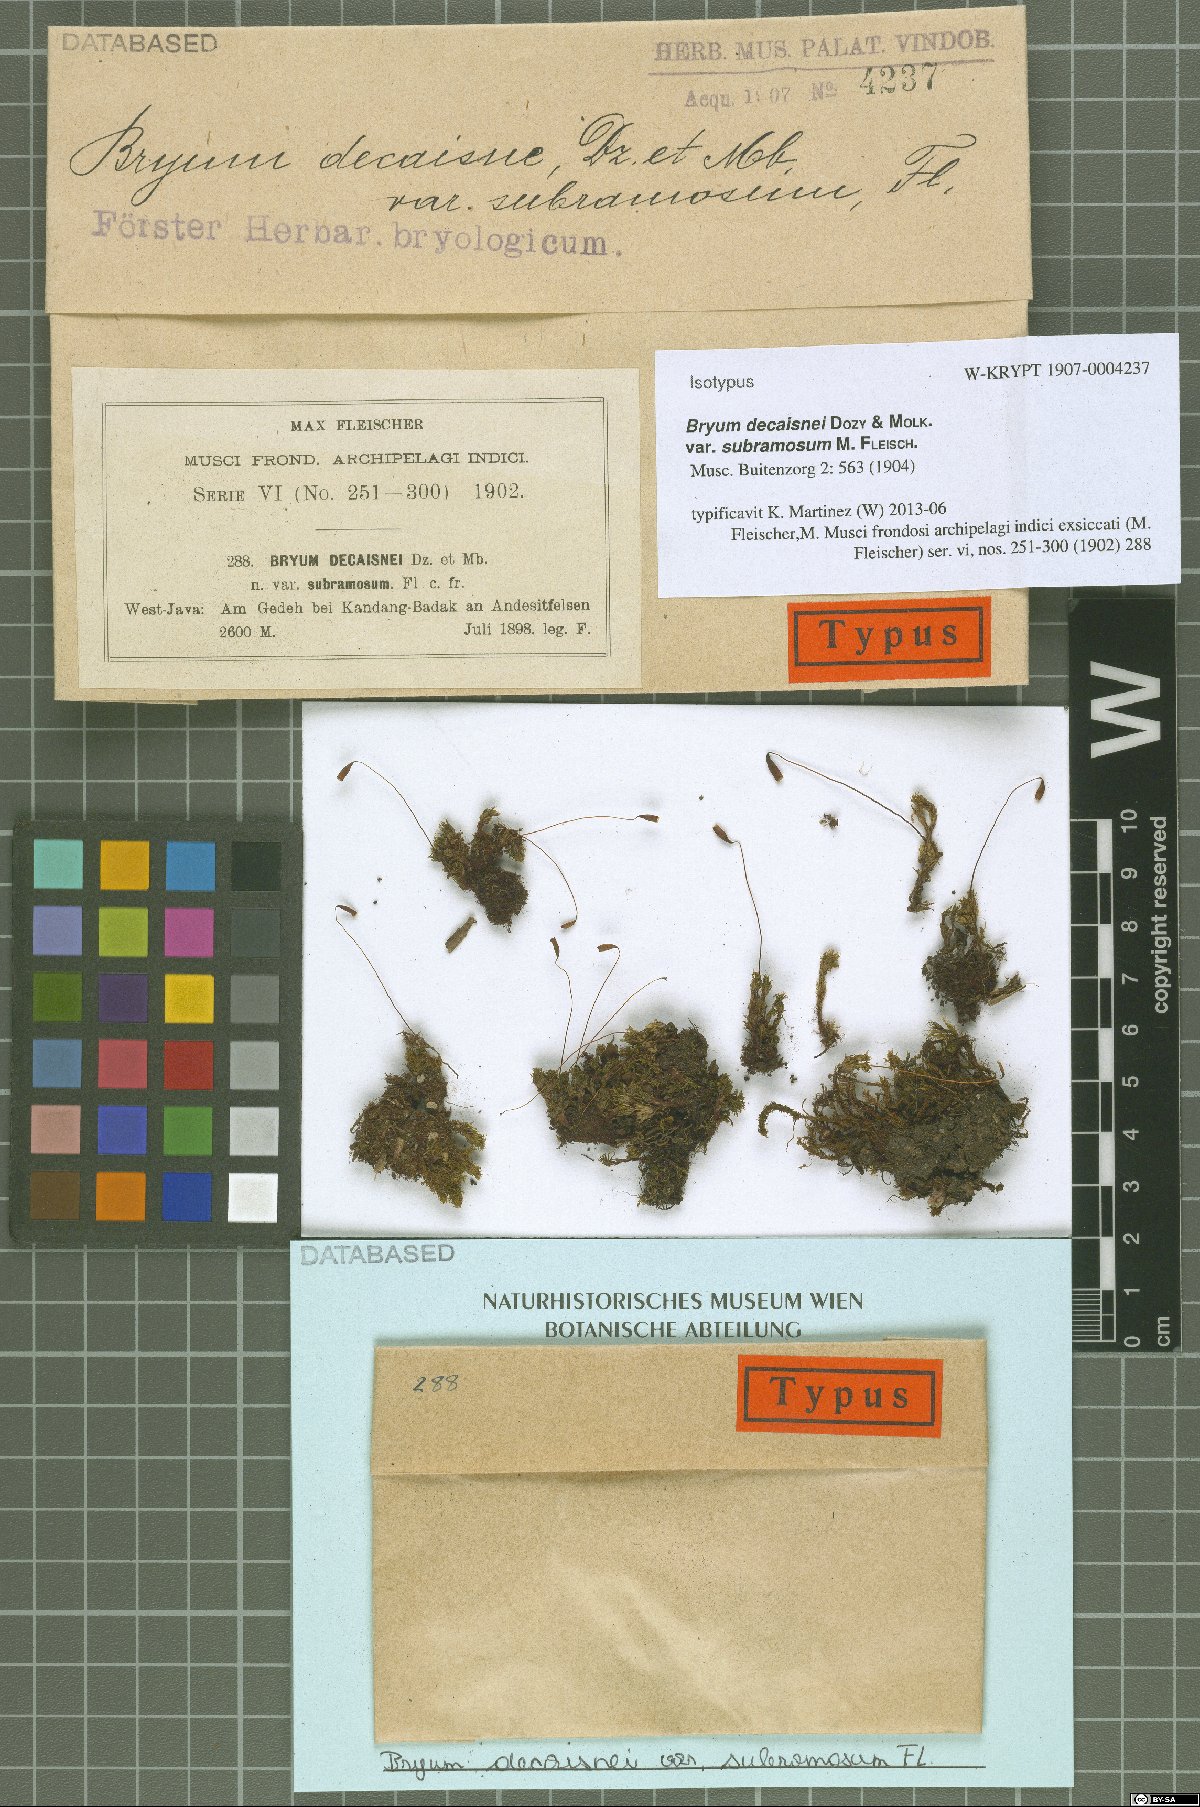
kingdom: Plantae
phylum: Bryophyta
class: Bryopsida
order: Bryales
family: Bryaceae
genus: Bryum
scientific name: Bryum neelgheriense
